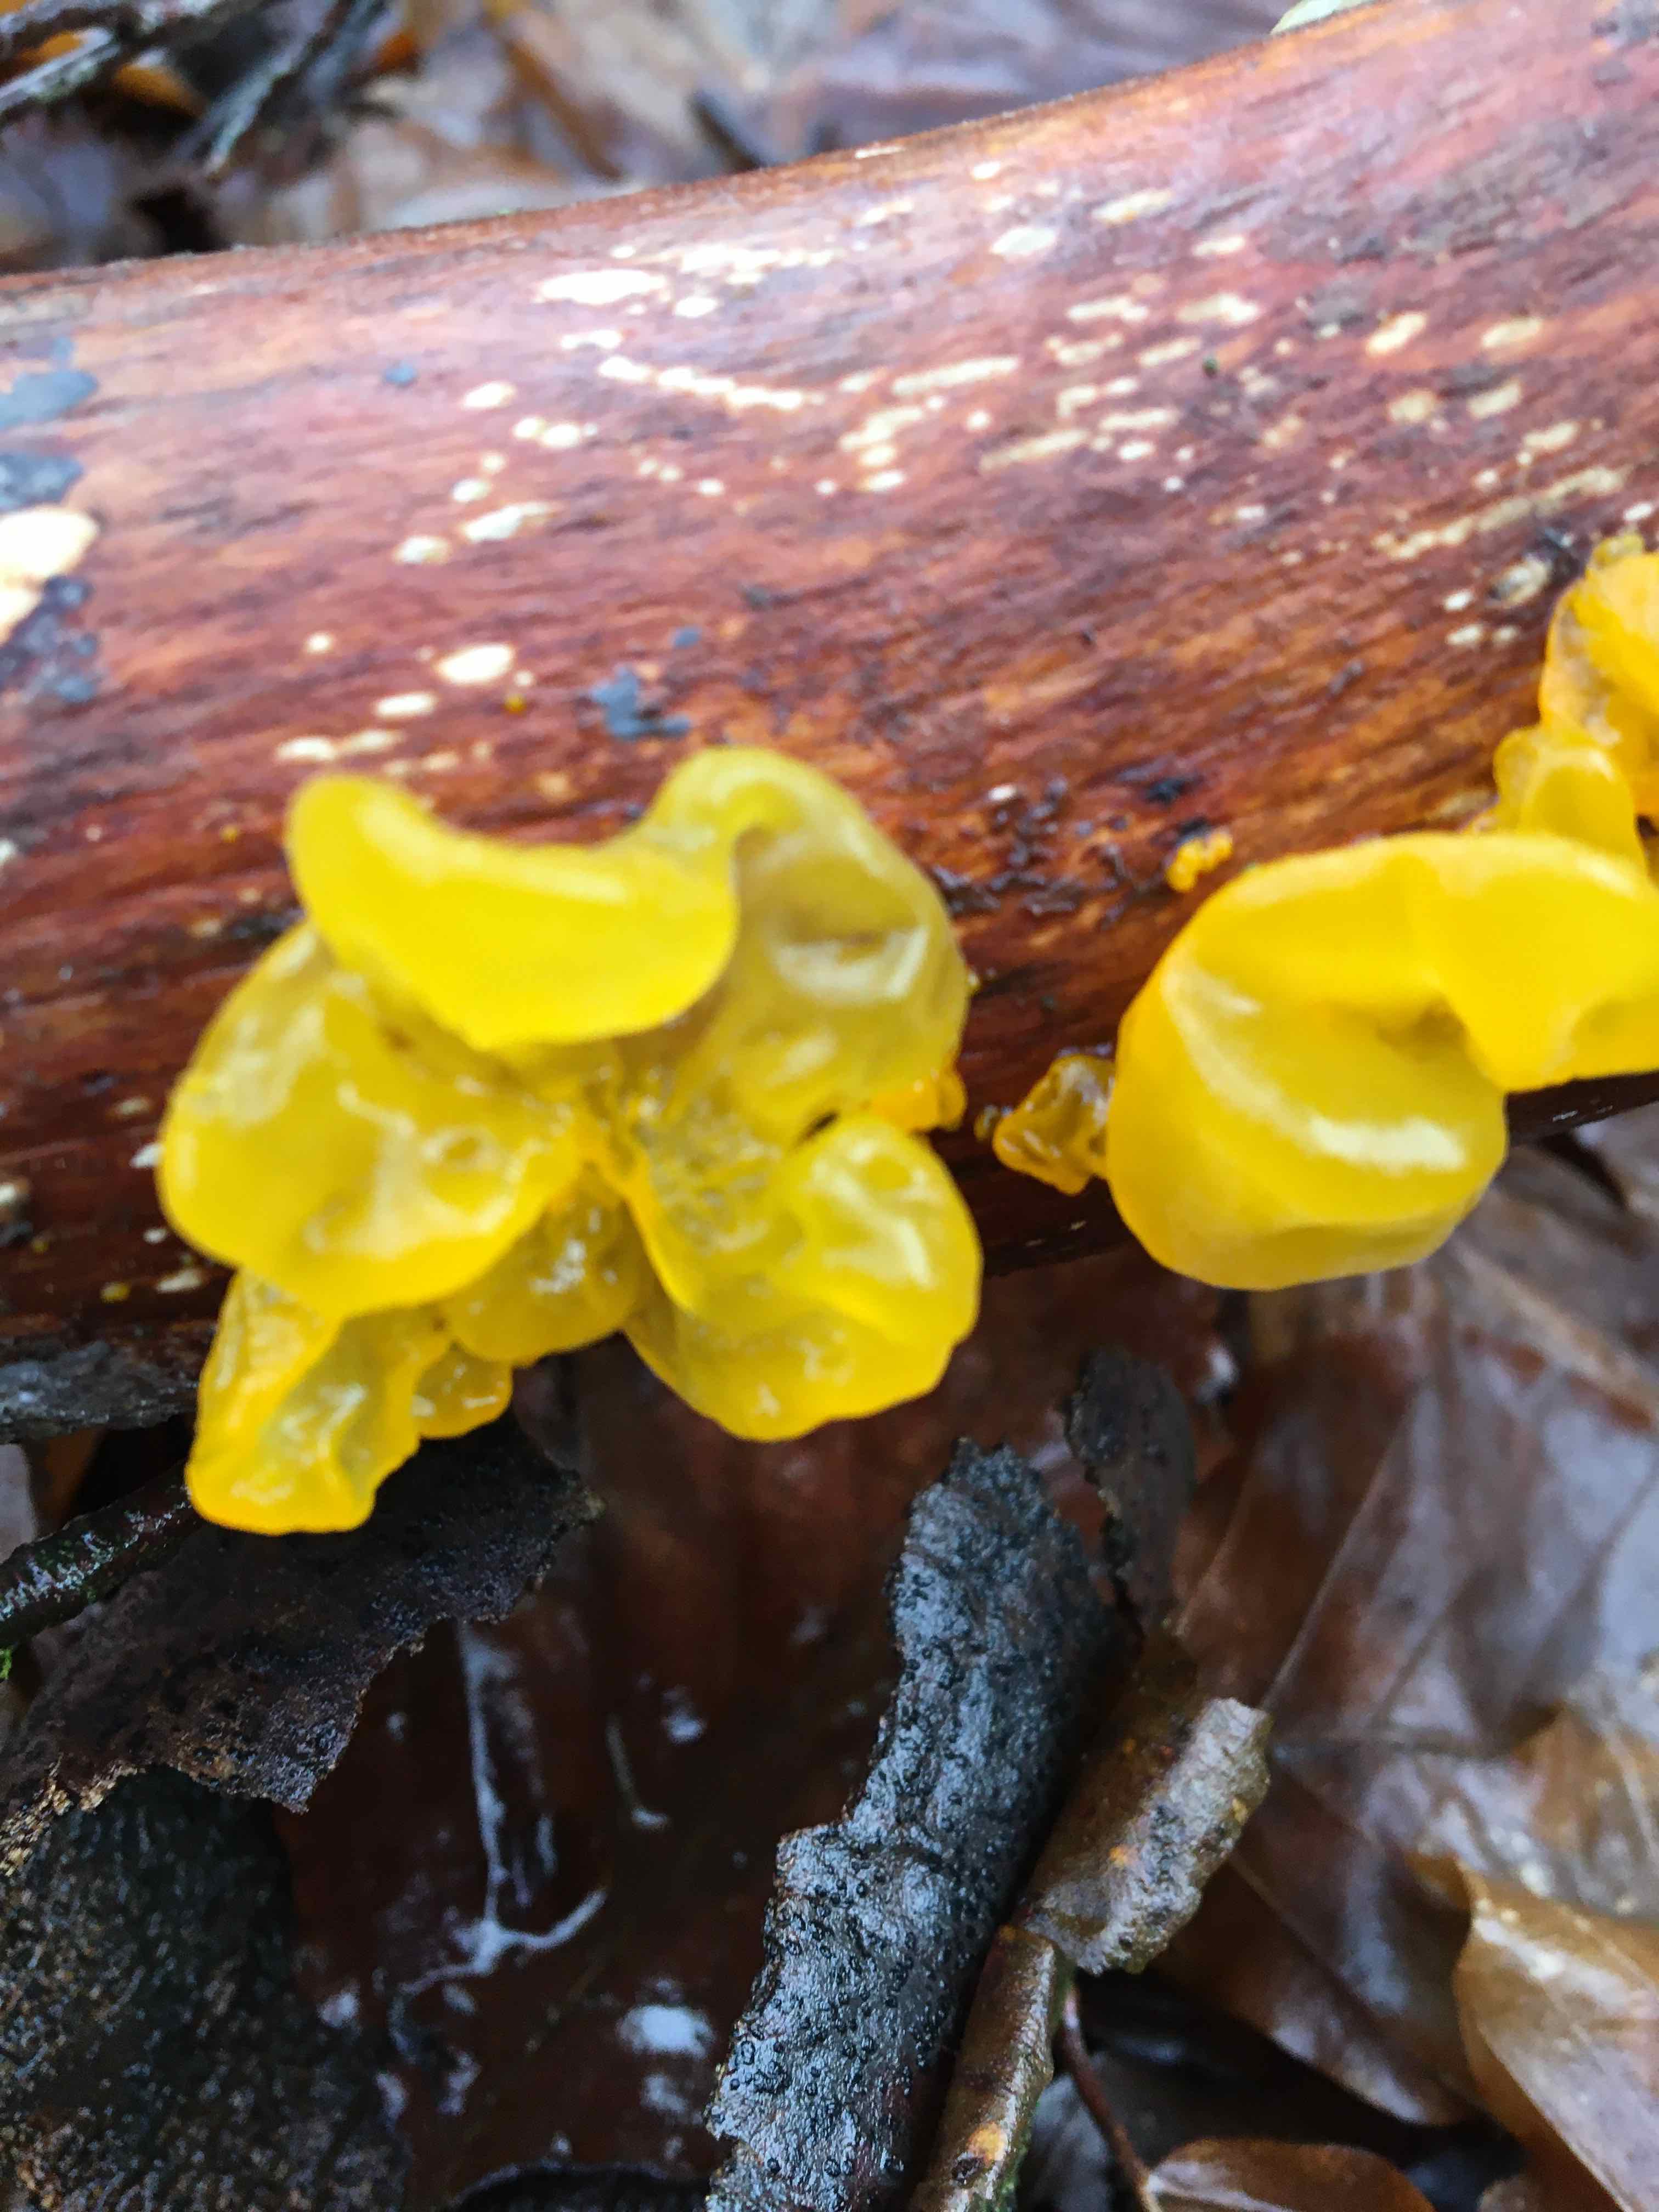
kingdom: Fungi
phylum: Basidiomycota
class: Tremellomycetes
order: Tremellales
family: Tremellaceae
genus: Tremella
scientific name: Tremella mesenterica
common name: gul bævresvamp
